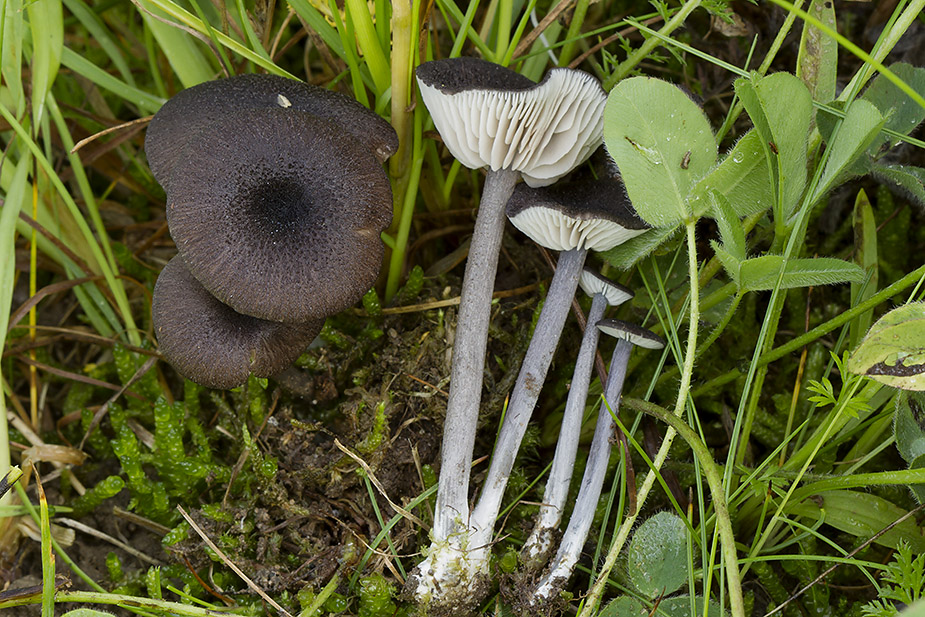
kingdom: Fungi
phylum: Basidiomycota
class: Agaricomycetes
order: Agaricales
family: Entolomataceae
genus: Entoloma
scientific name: Entoloma porphyrogriseum
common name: porfyrgrå rødblad
